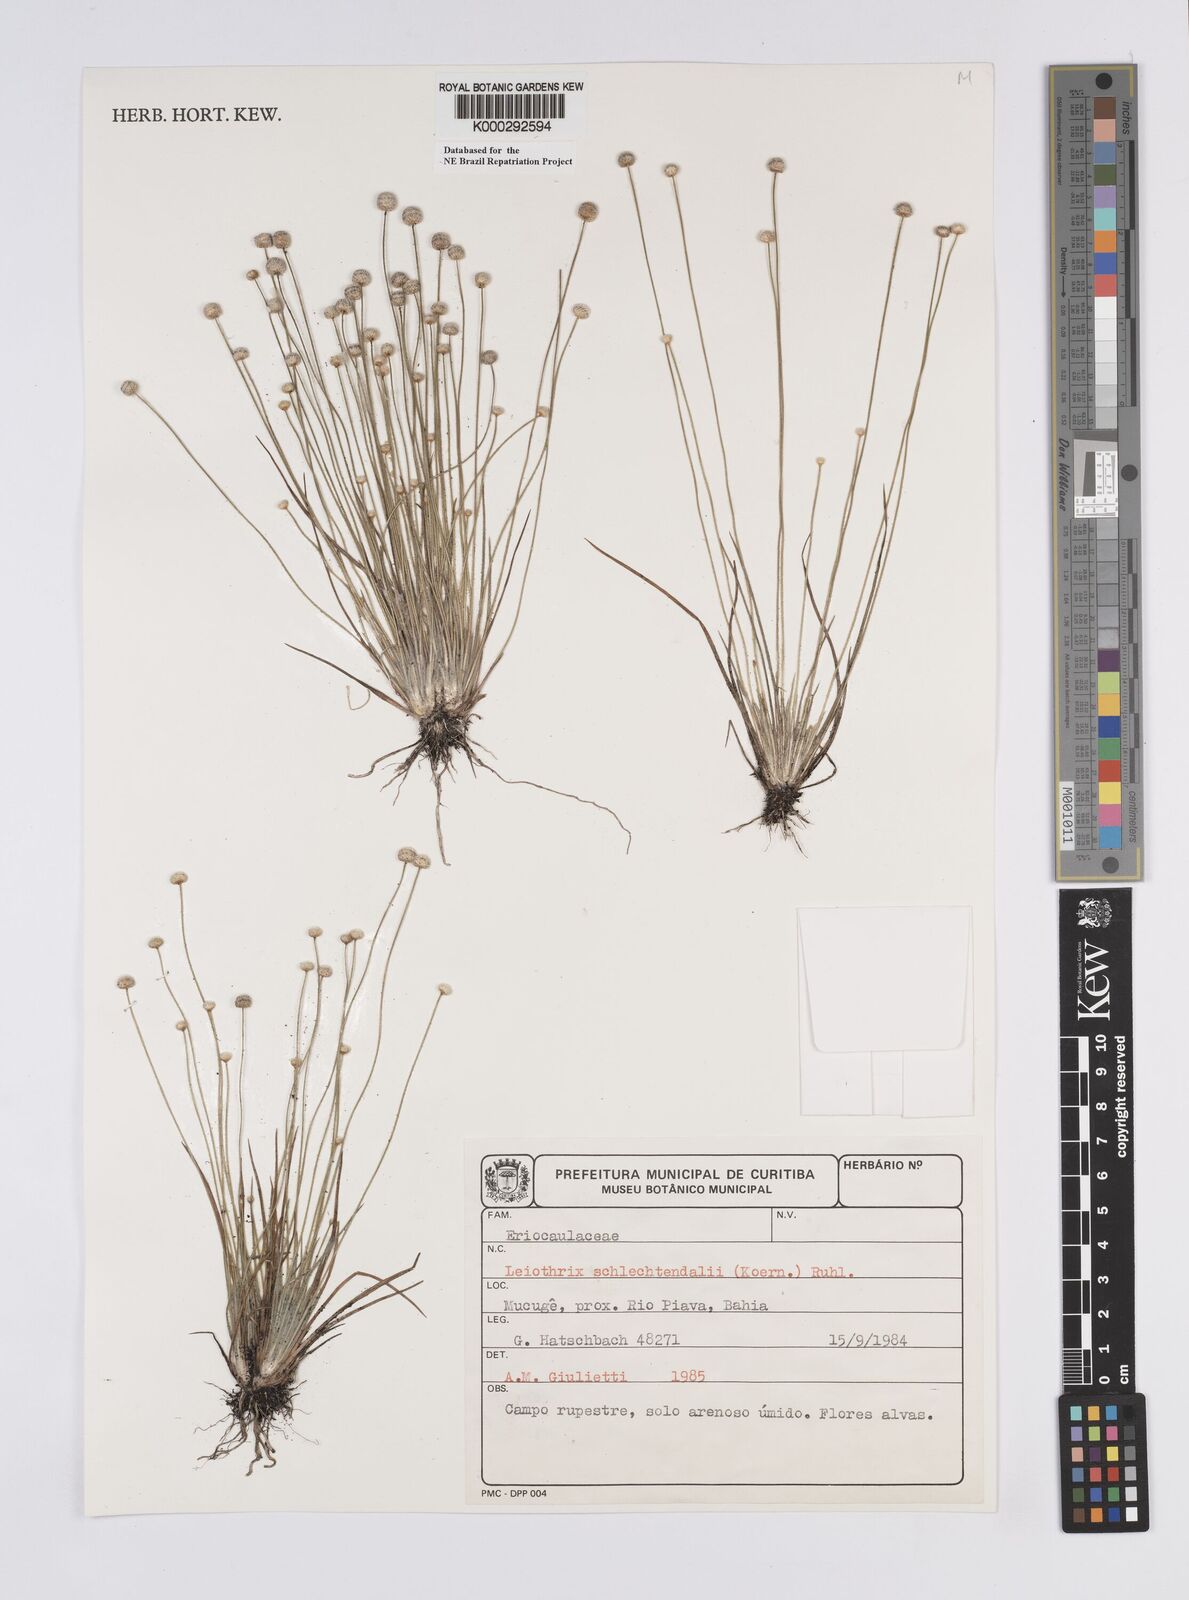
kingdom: Plantae
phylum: Tracheophyta
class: Liliopsida
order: Poales
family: Eriocaulaceae
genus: Leiothrix
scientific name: Leiothrix schlechtendalii
